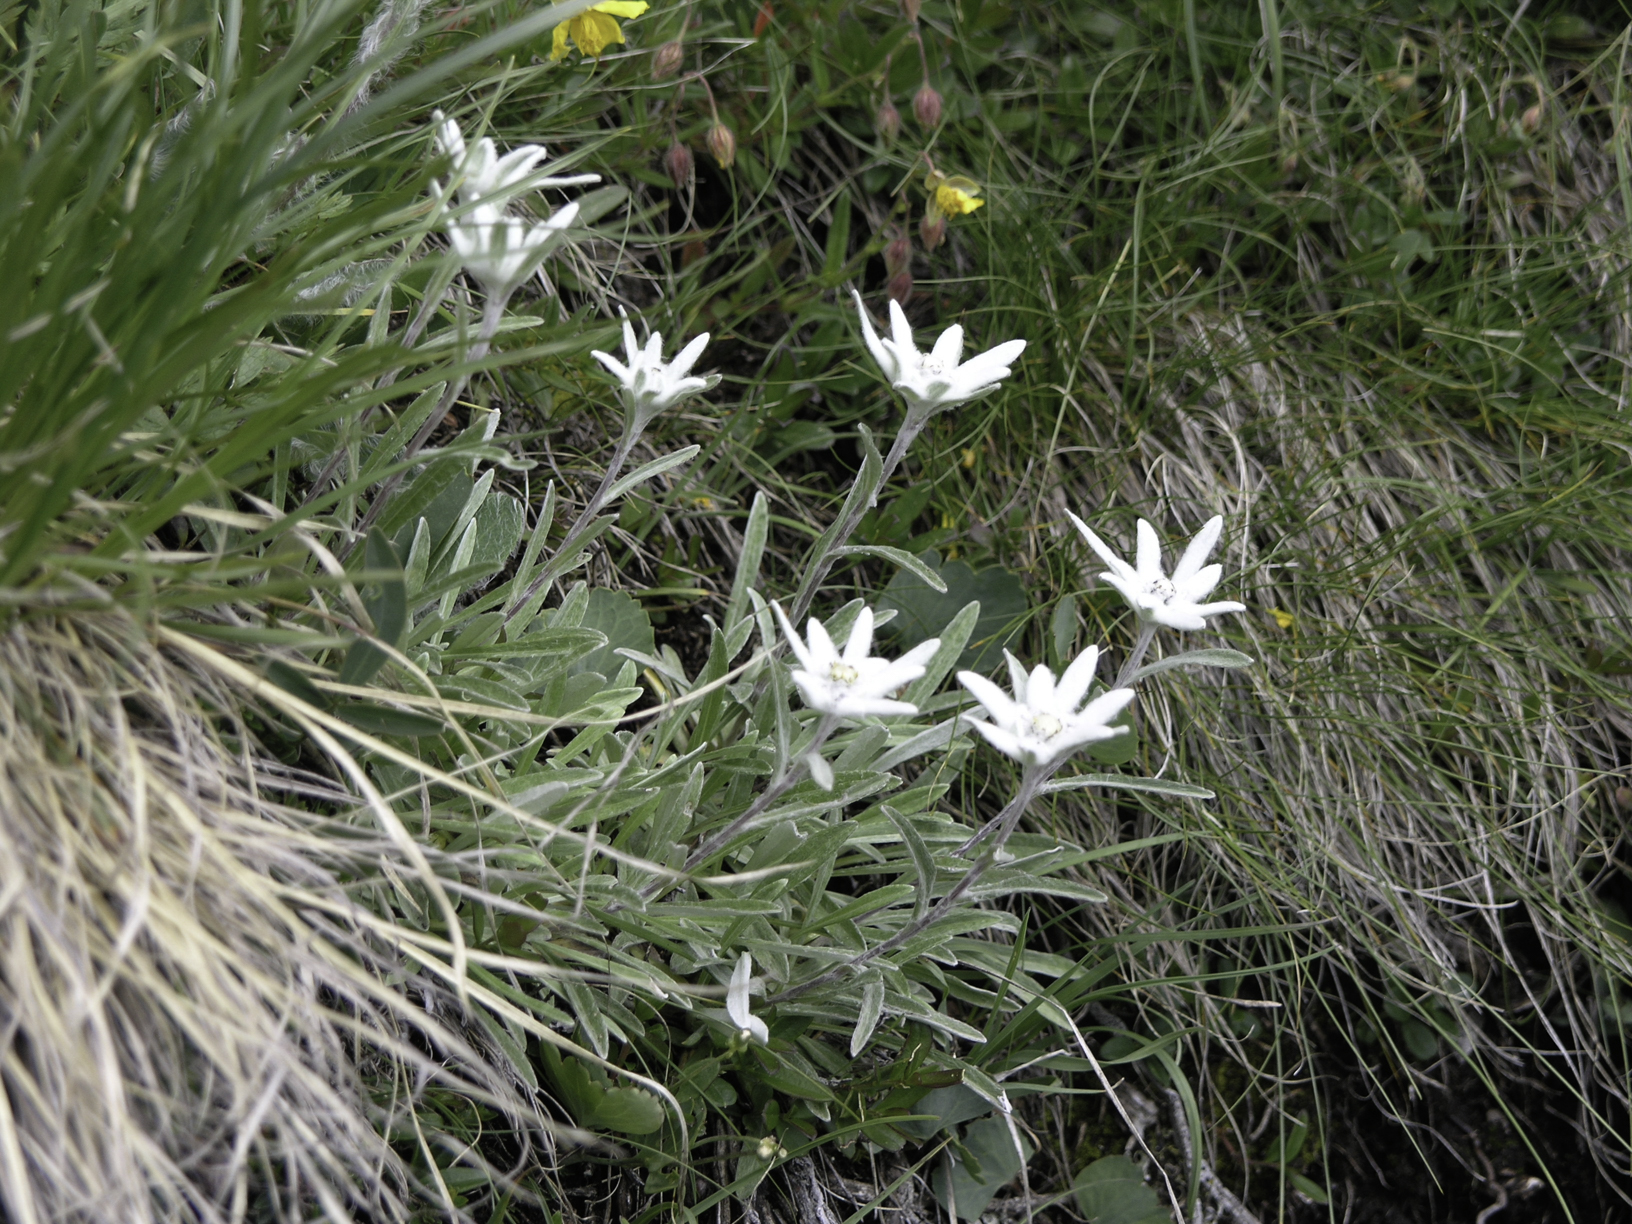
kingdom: Plantae
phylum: Tracheophyta
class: Magnoliopsida
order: Asterales
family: Asteraceae
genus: Leontopodium
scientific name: Leontopodium nivale
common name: Edelweiss
